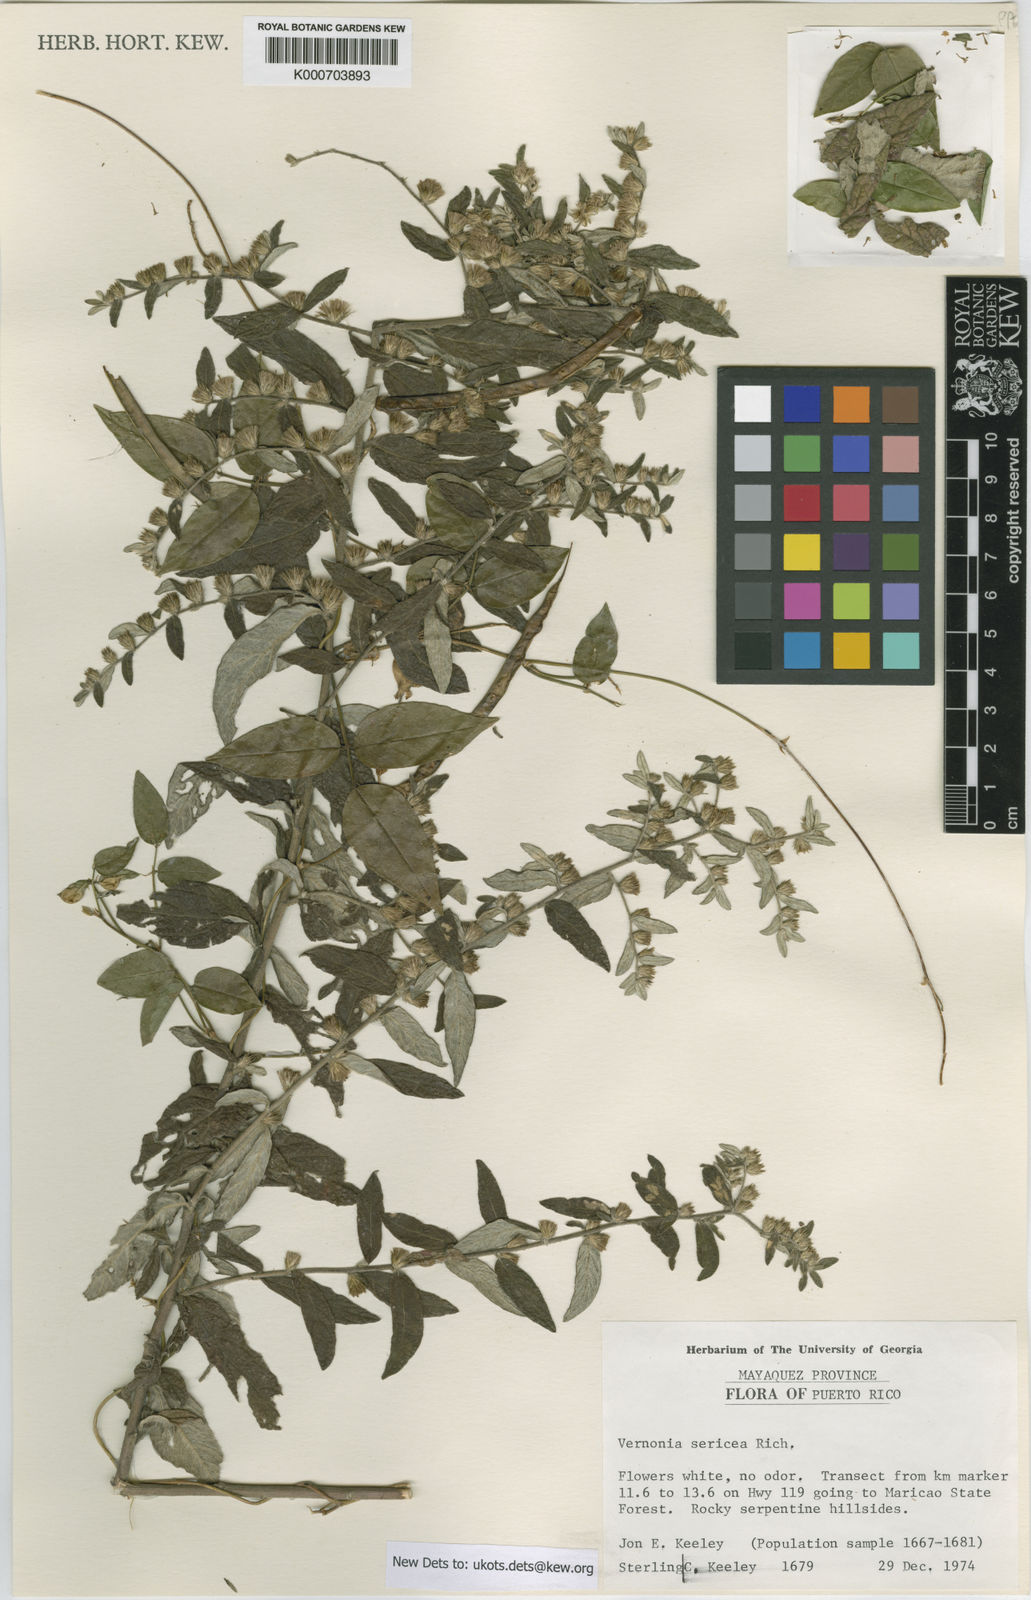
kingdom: Plantae
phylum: Tracheophyta
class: Magnoliopsida
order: Asterales
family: Asteraceae
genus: Lepidaploa
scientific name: Lepidaploa sericea
